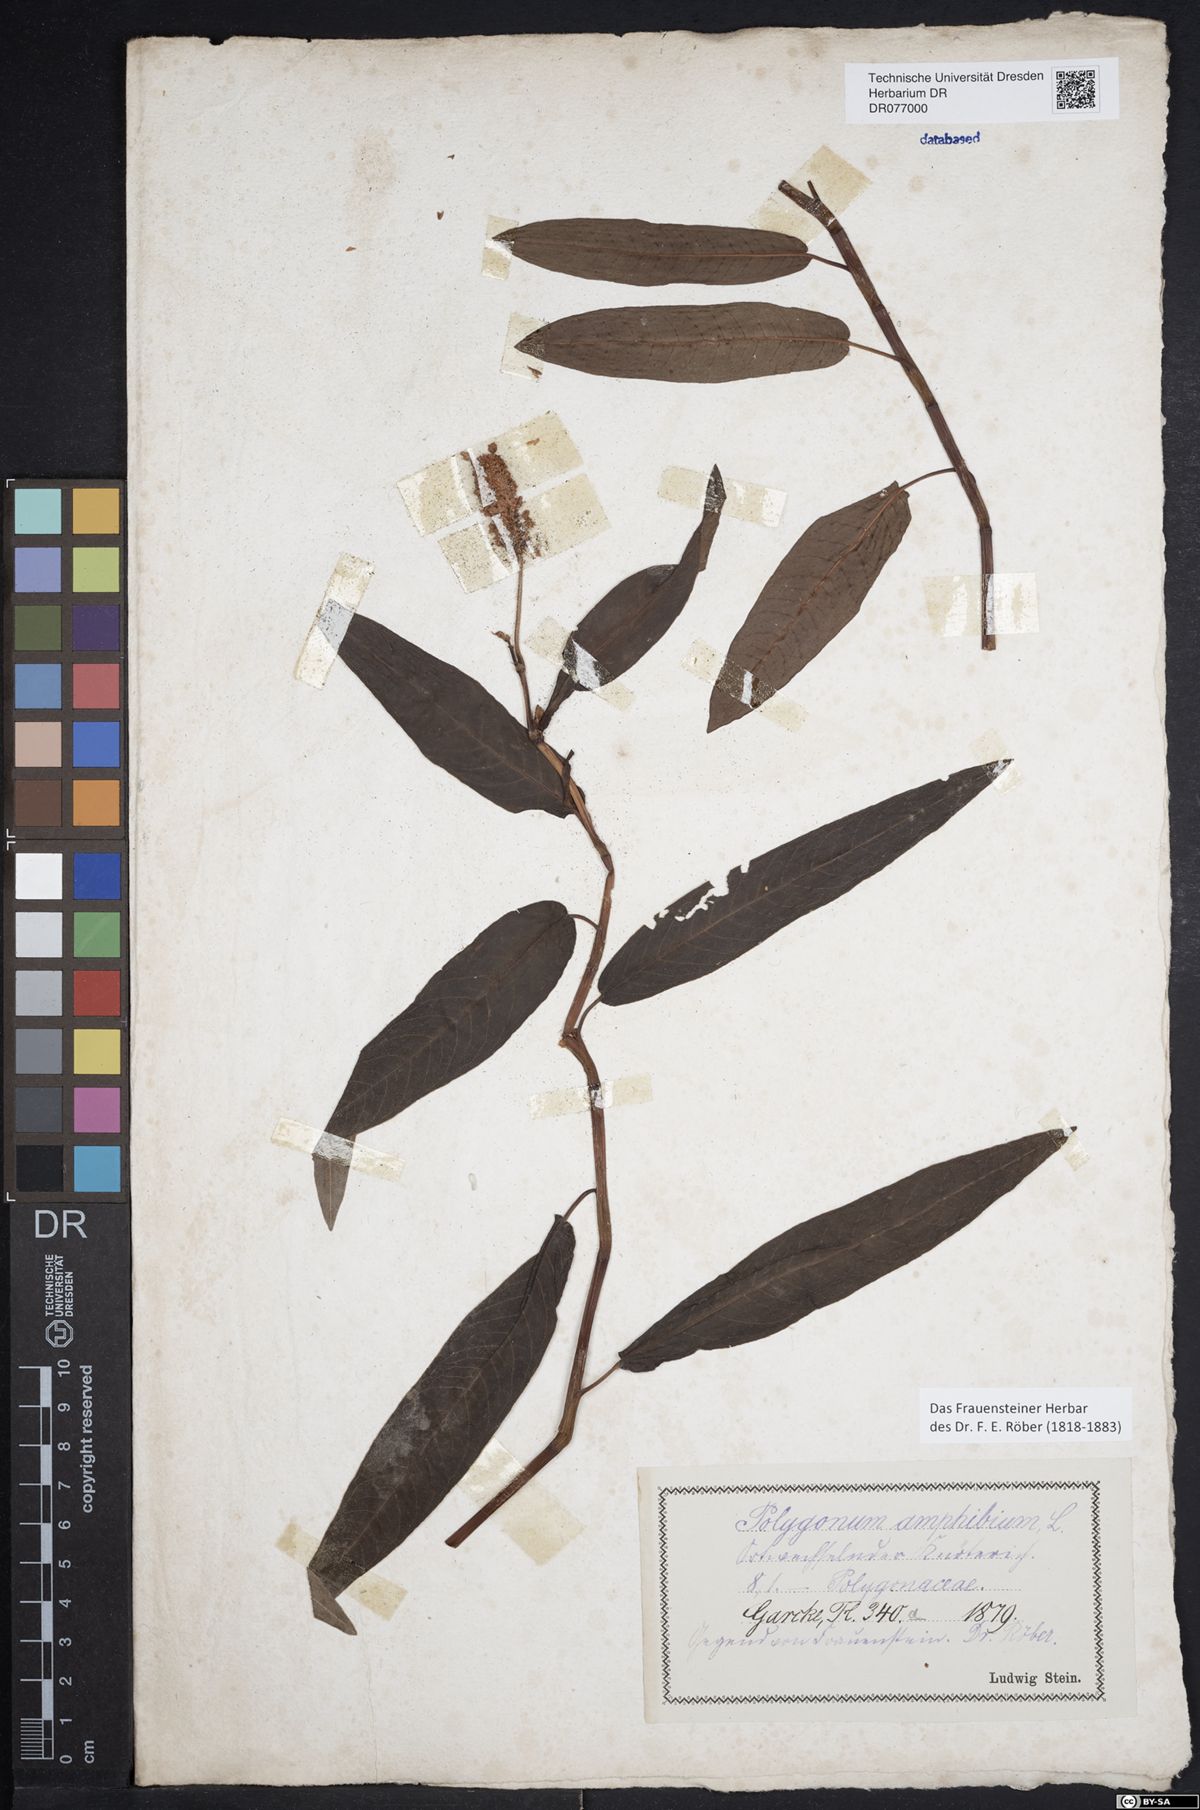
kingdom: Plantae
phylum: Tracheophyta
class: Magnoliopsida
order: Caryophyllales
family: Polygonaceae
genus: Persicaria
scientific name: Persicaria amphibia
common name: Amphibious bistort
